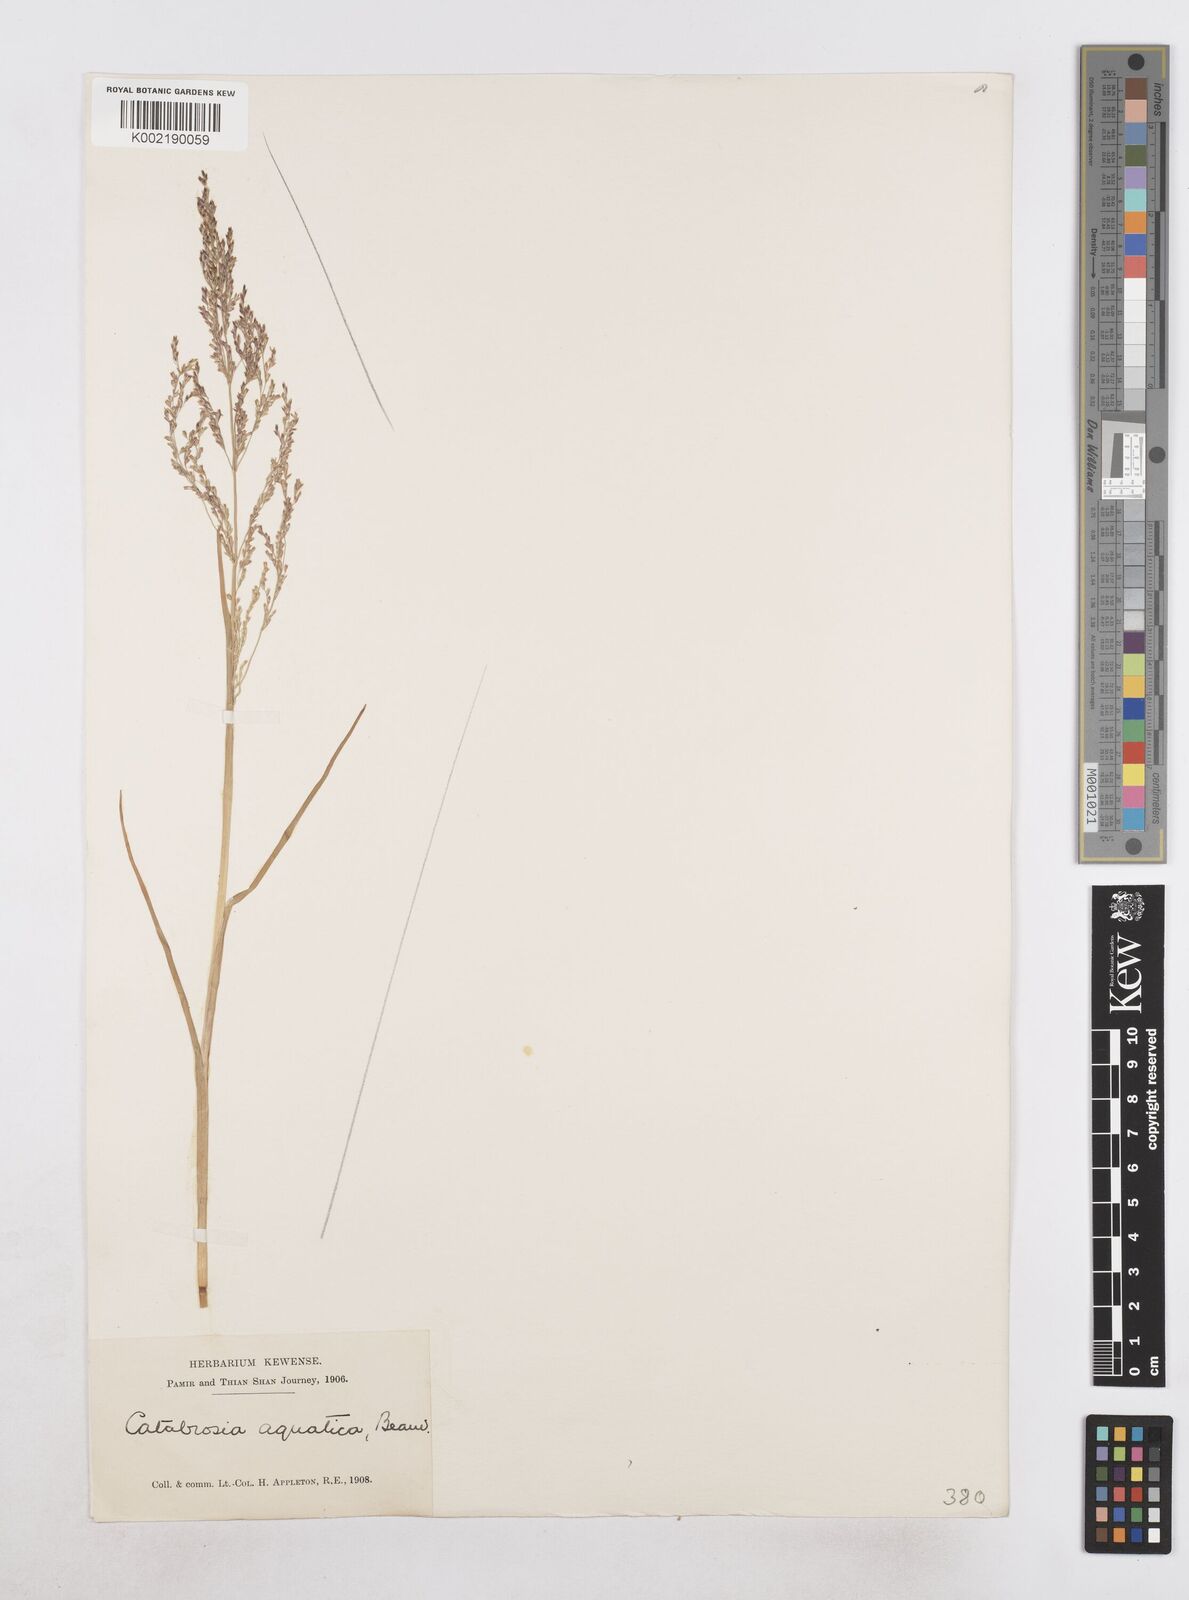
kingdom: Plantae
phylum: Tracheophyta
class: Liliopsida
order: Poales
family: Poaceae
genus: Catabrosa
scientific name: Catabrosa aquatica
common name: Whorl-grass
